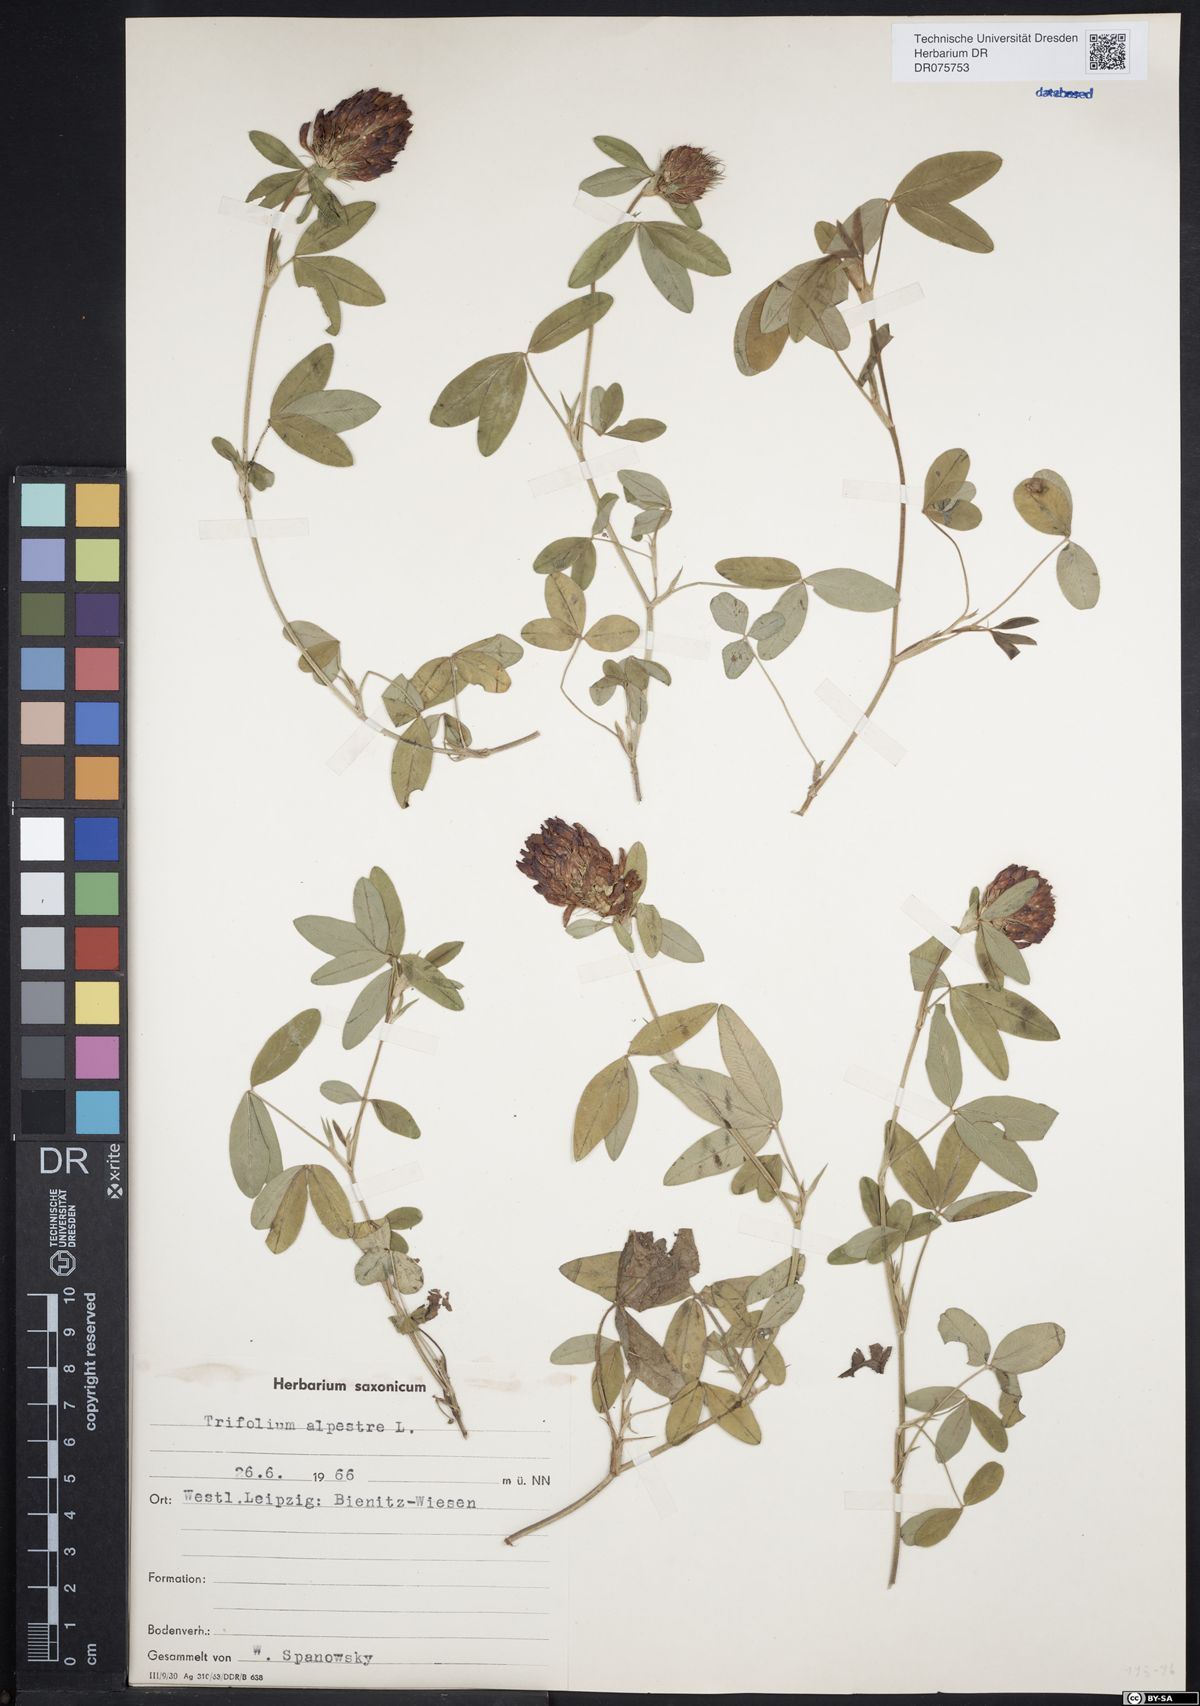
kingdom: Plantae
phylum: Tracheophyta
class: Magnoliopsida
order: Fabales
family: Fabaceae
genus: Trifolium
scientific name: Trifolium medium
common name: Zigzag clover
